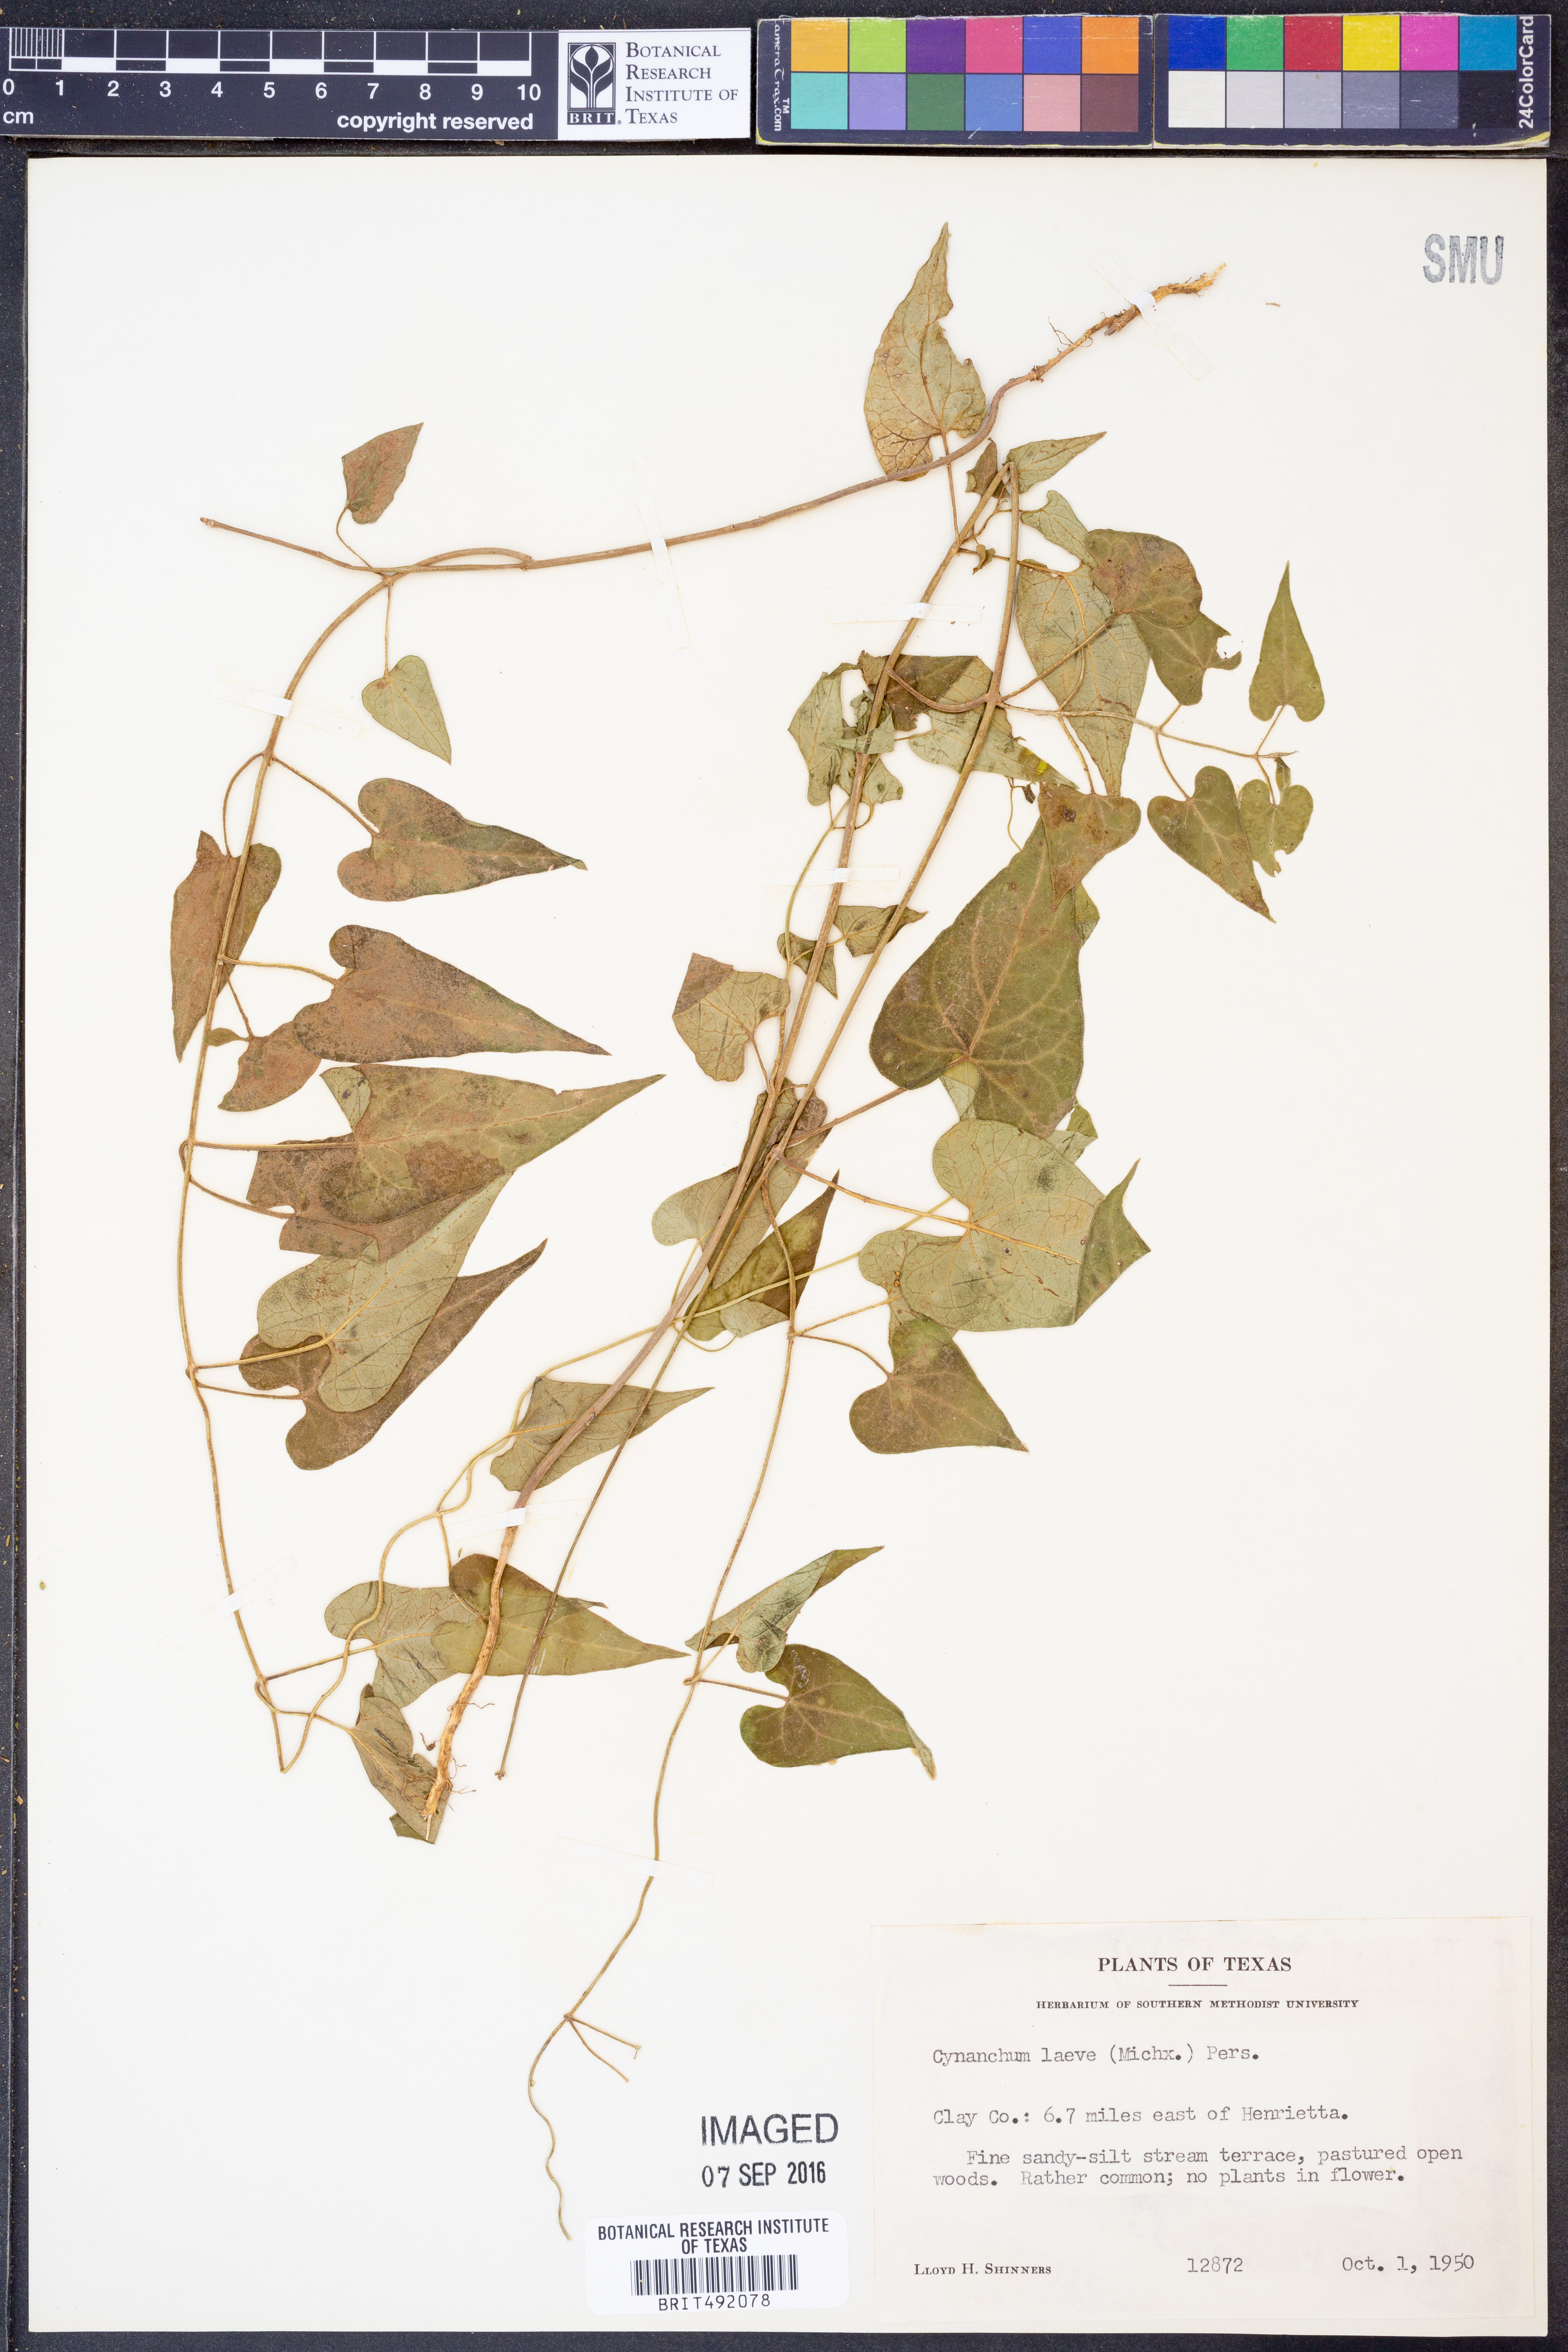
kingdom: Plantae
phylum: Tracheophyta
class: Magnoliopsida
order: Gentianales
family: Apocynaceae
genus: Cynanchum
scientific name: Cynanchum laeve
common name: Sandvine
